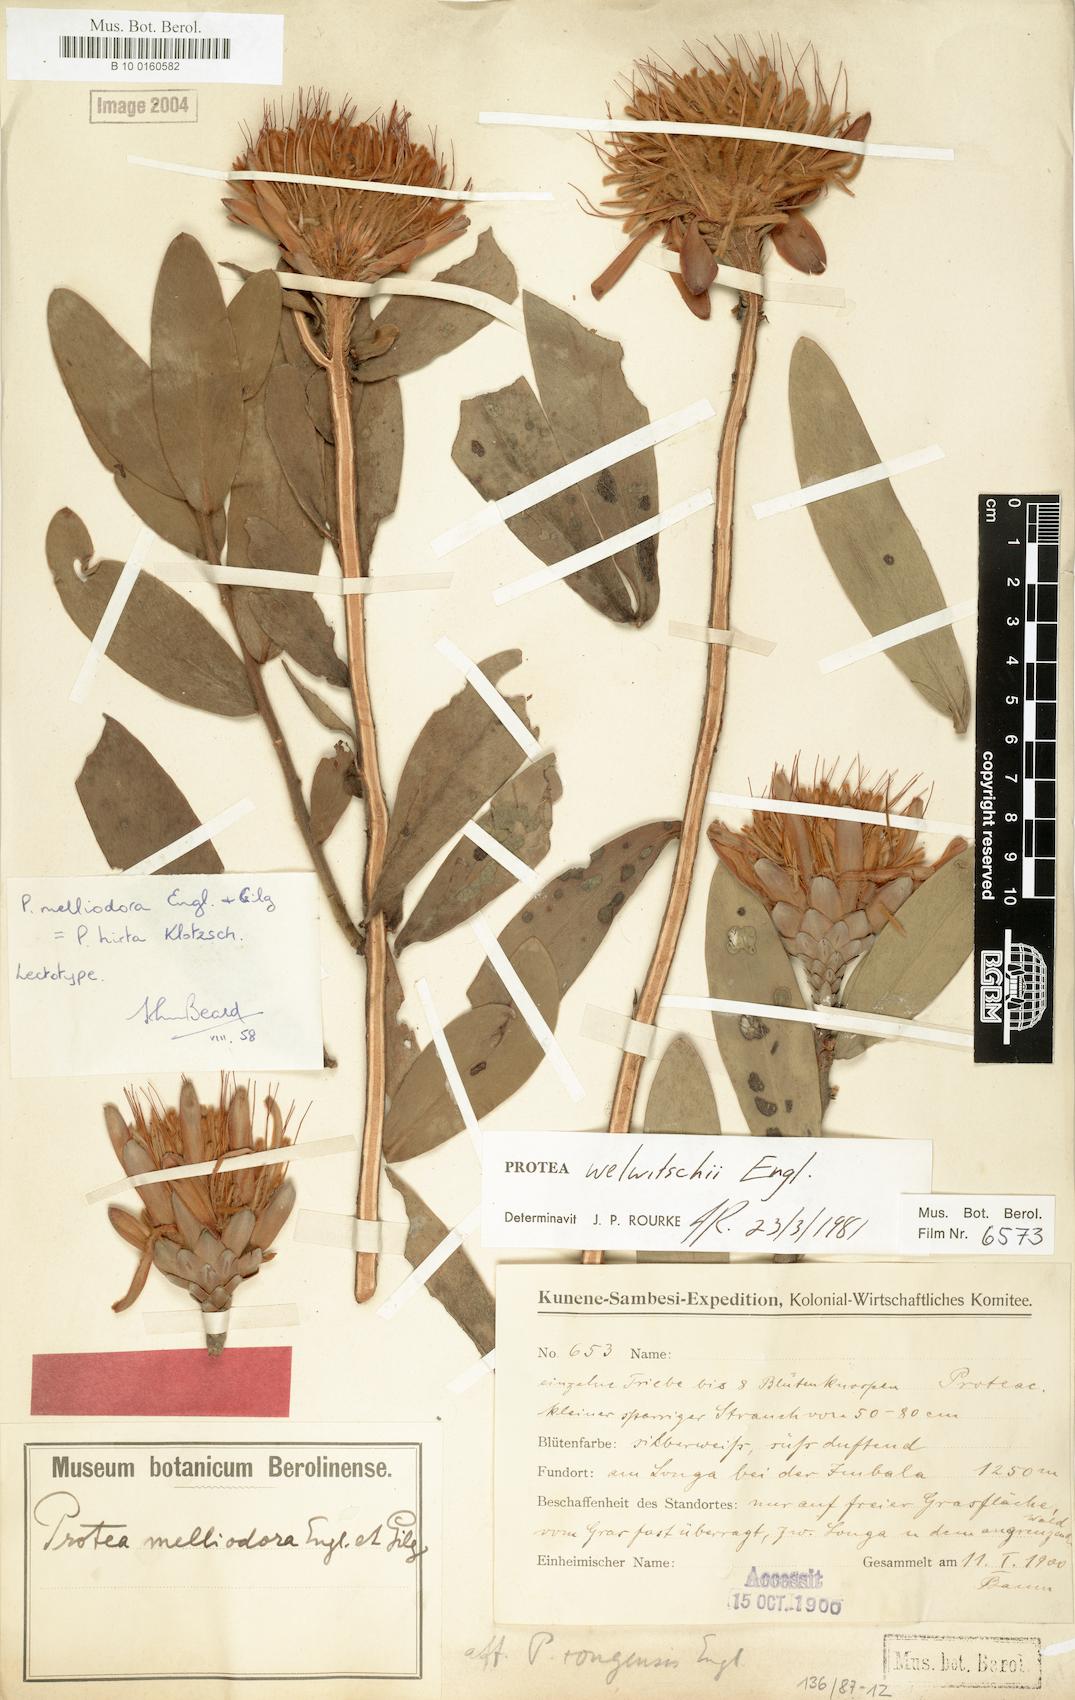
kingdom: Plantae
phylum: Tracheophyta
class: Magnoliopsida
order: Proteales
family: Proteaceae
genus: Protea
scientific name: Protea welwitschii
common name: Cluster-head protea
